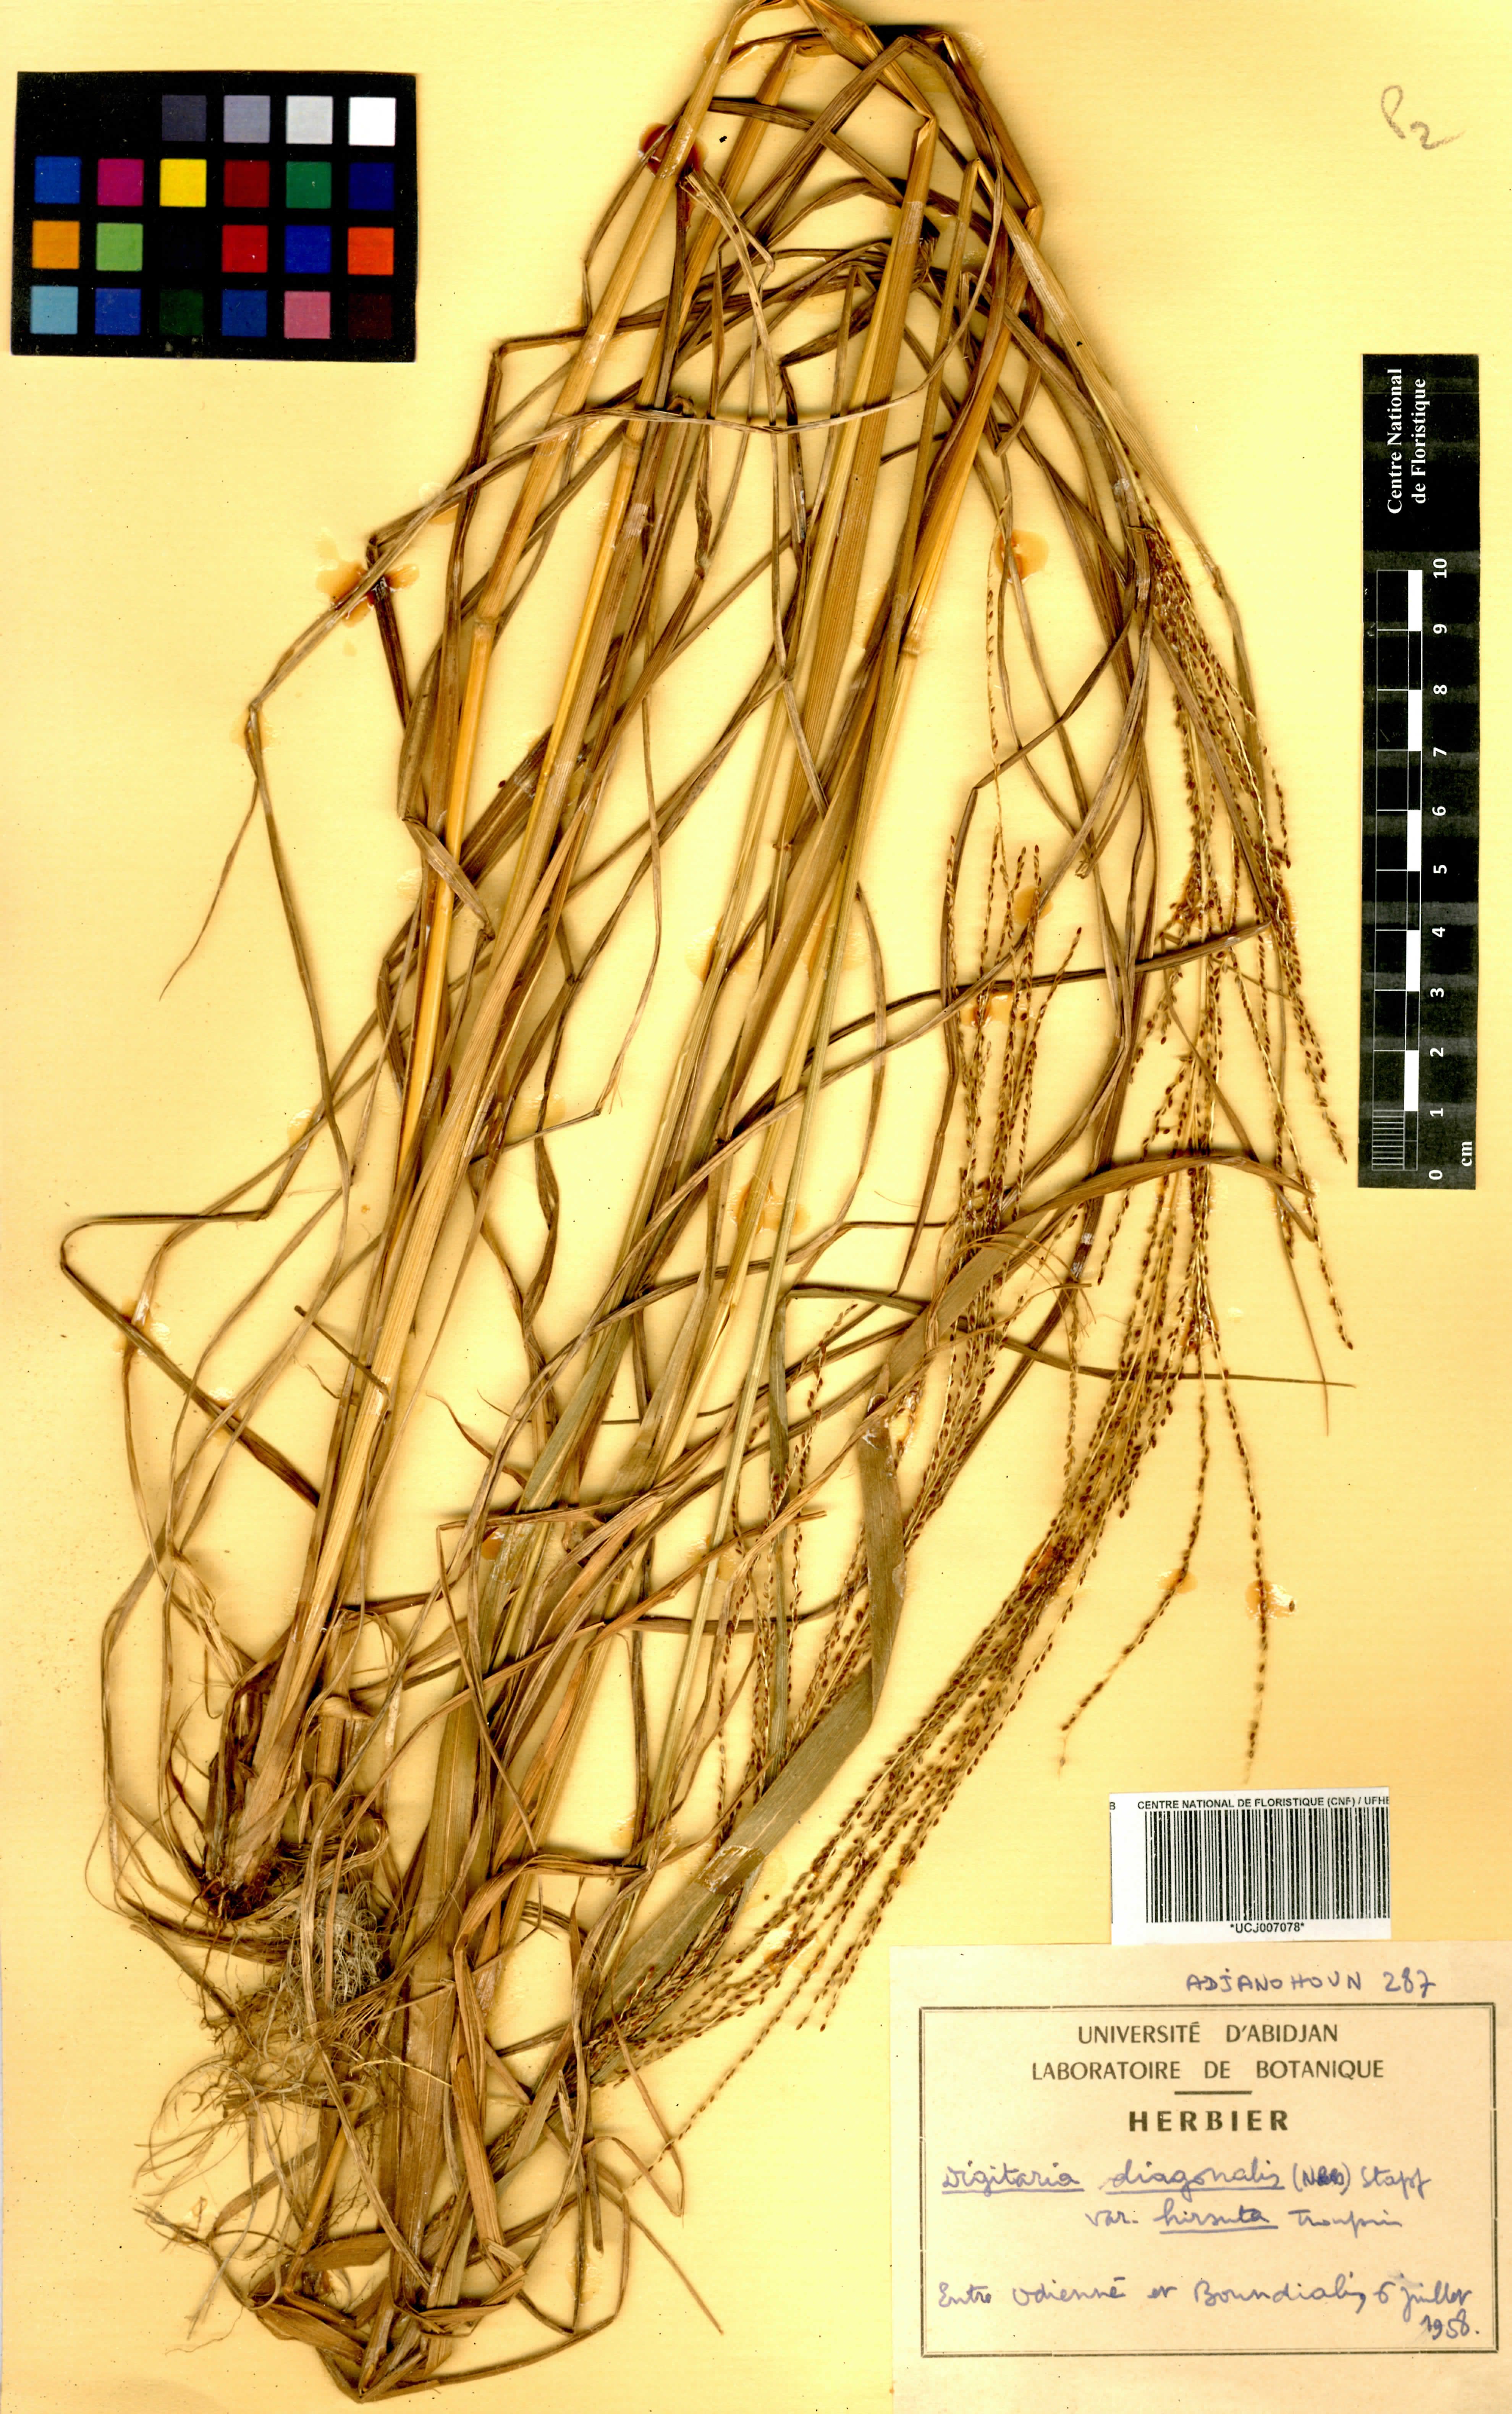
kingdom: Plantae
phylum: Tracheophyta
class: Liliopsida
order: Poales
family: Poaceae
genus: Digitaria
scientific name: Digitaria diagonalis
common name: Brown-seed finger grass
